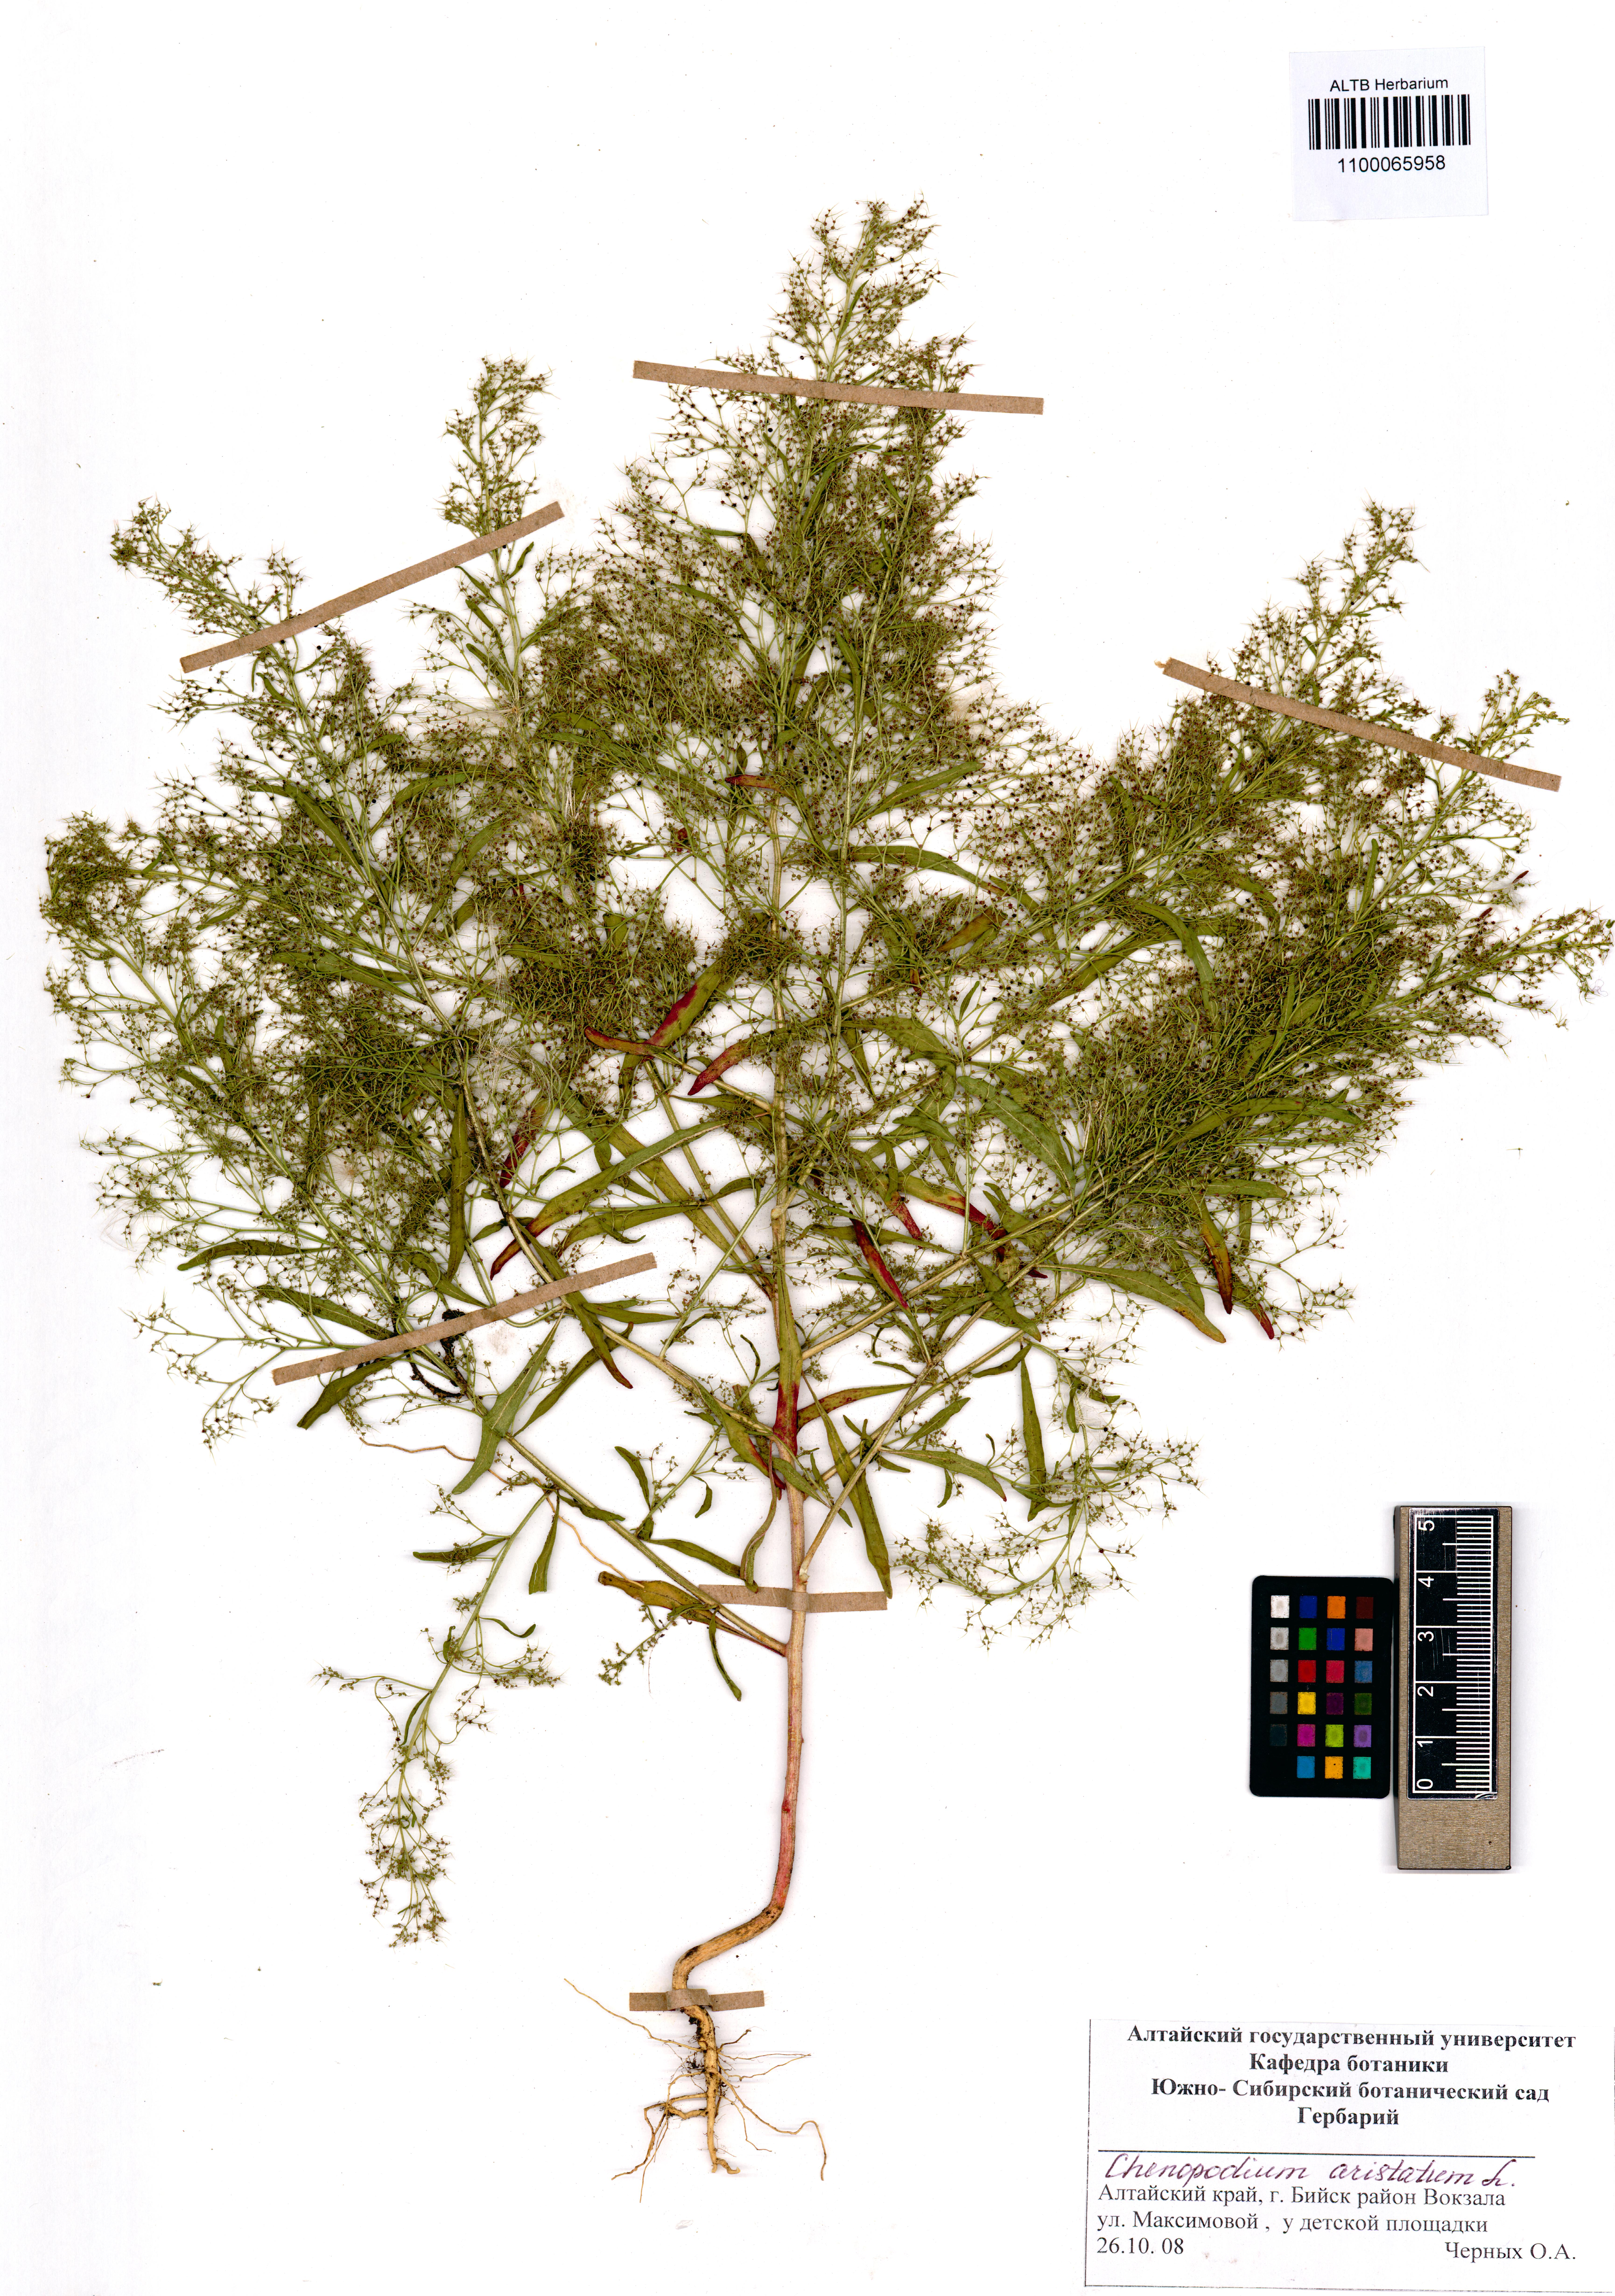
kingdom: Plantae
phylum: Tracheophyta
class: Magnoliopsida
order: Caryophyllales
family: Amaranthaceae
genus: Teloxys
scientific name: Teloxys aristata
